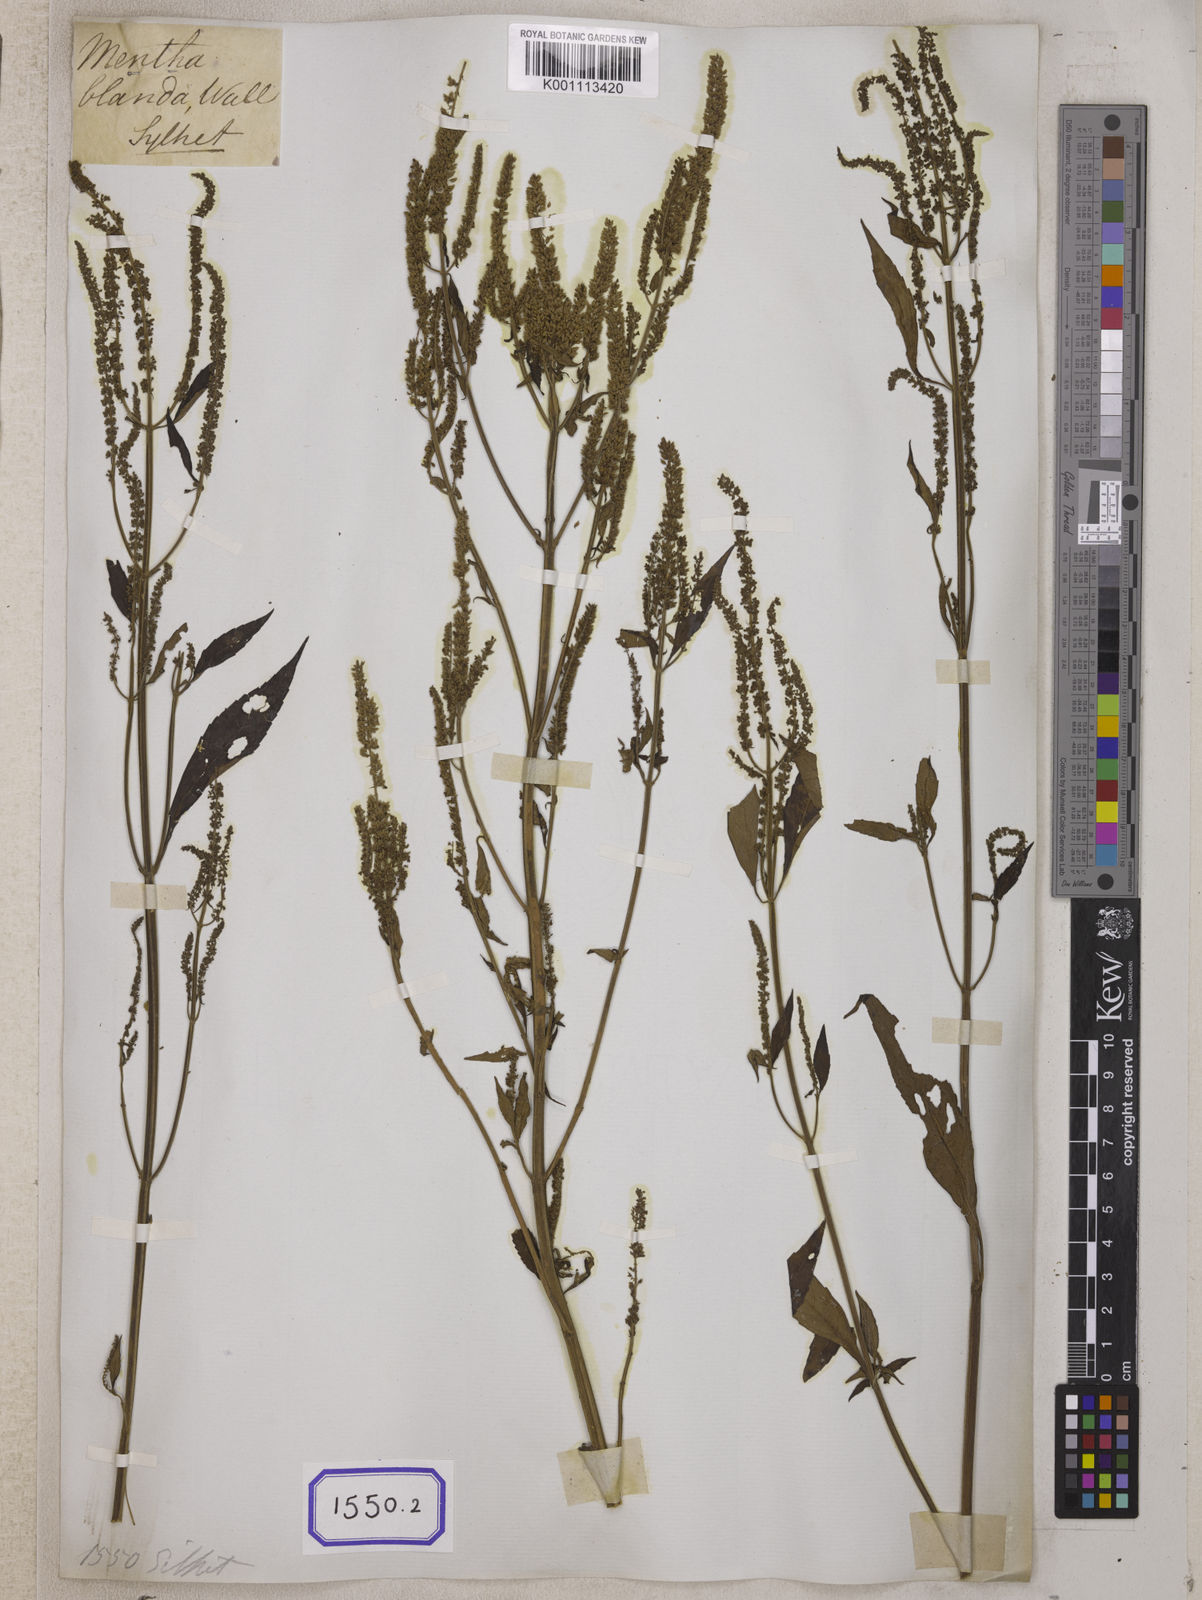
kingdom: Plantae
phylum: Tracheophyta
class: Magnoliopsida
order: Lamiales
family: Lamiaceae
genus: Elsholtzia
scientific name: Elsholtzia blanda
